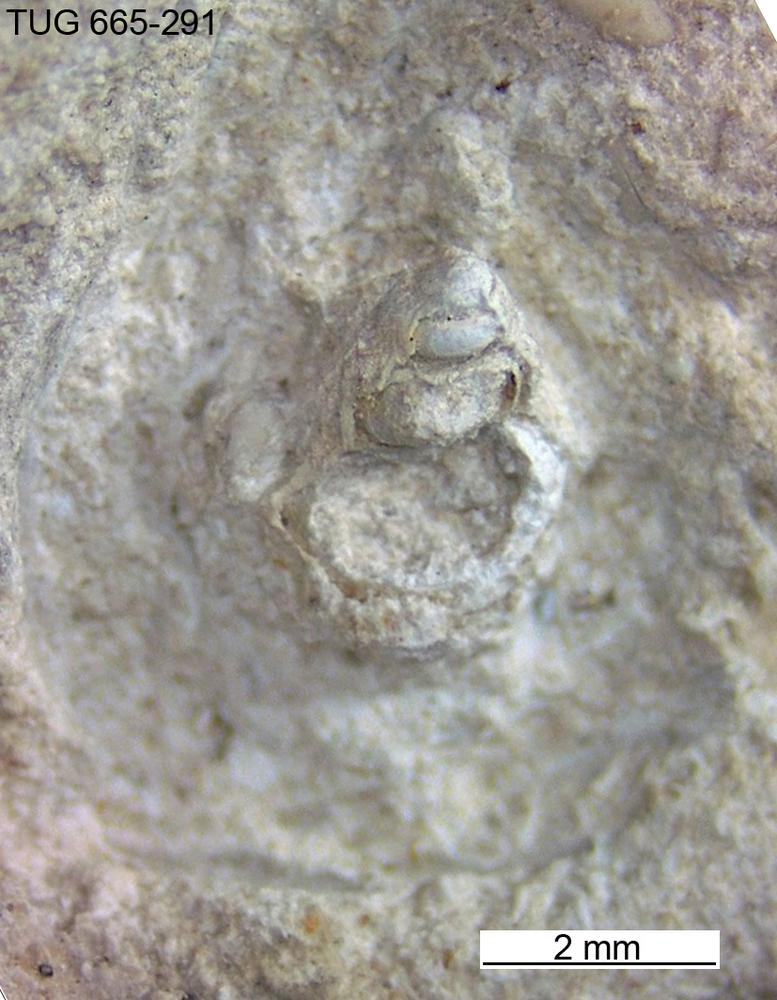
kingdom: Animalia
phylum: Mollusca
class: Gastropoda
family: Trochonematidae
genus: Trochonema
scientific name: Trochonema peraltum
